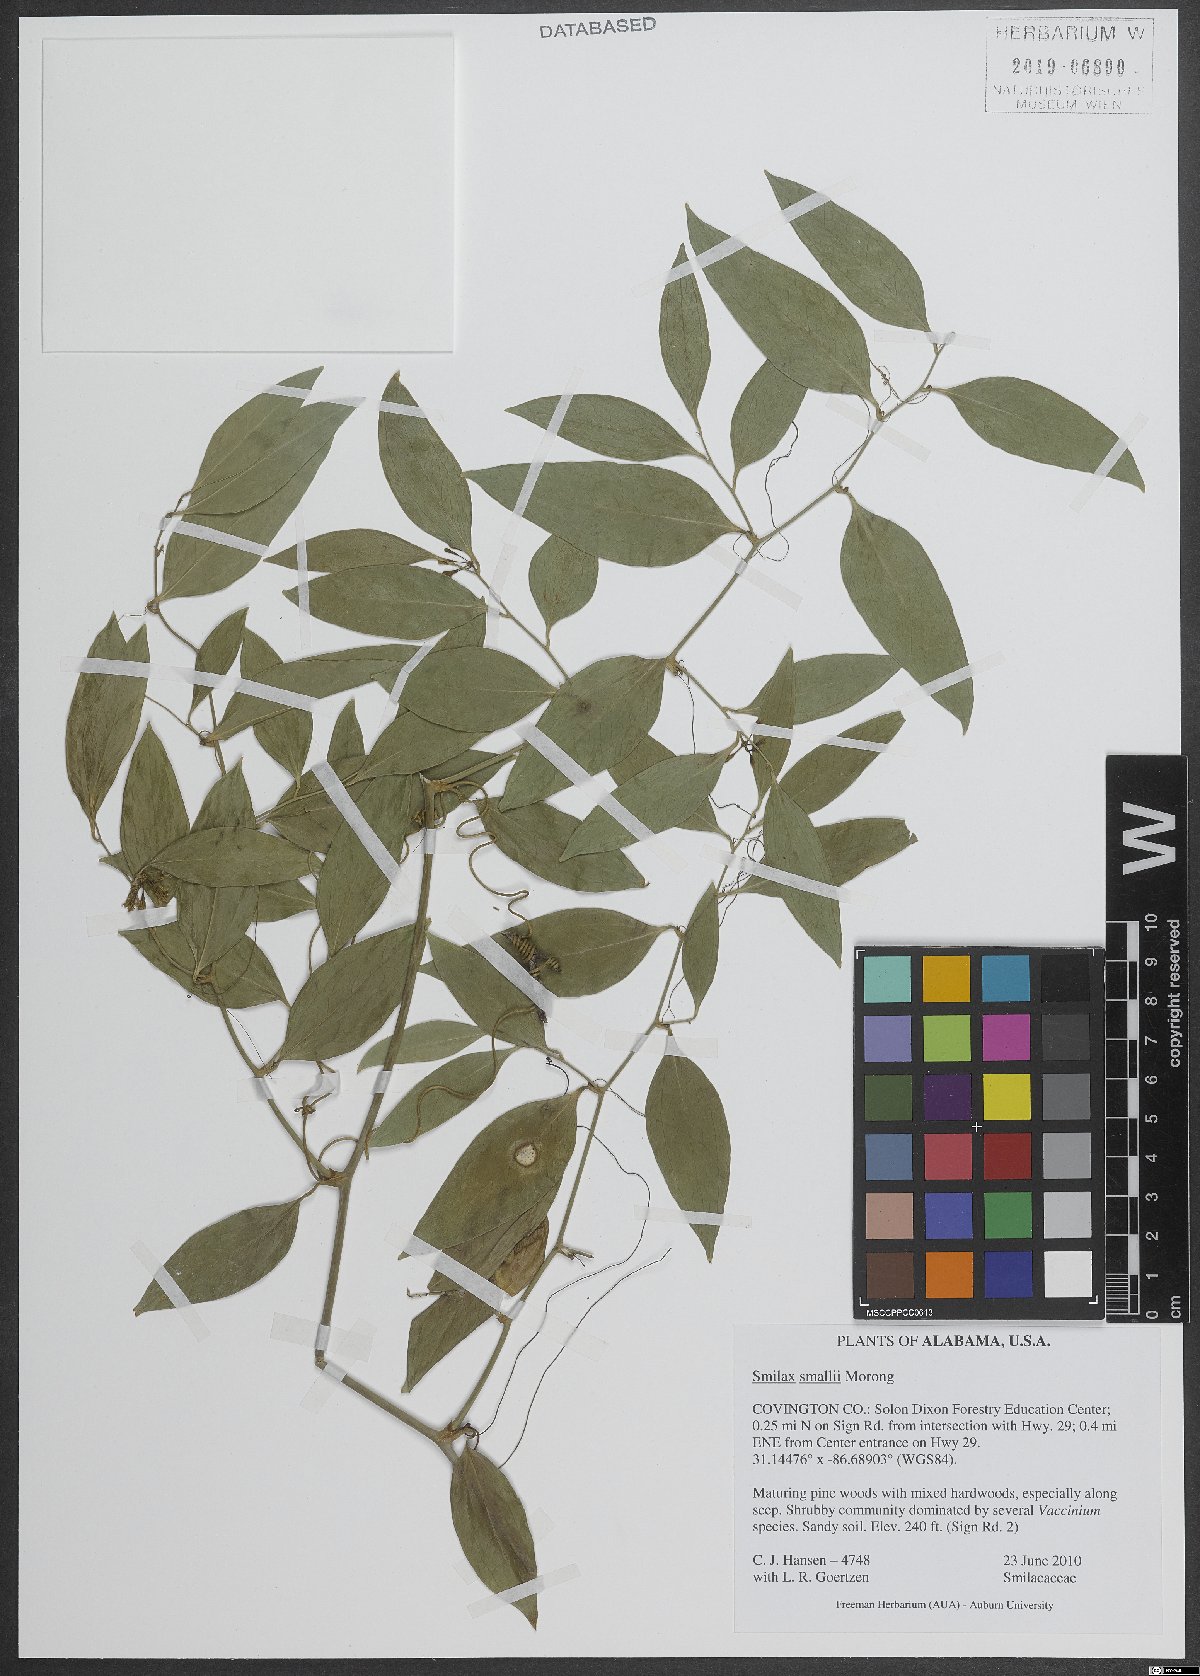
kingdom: Plantae
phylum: Tracheophyta
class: Liliopsida
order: Liliales
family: Smilacaceae
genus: Smilax
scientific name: Smilax maritima
